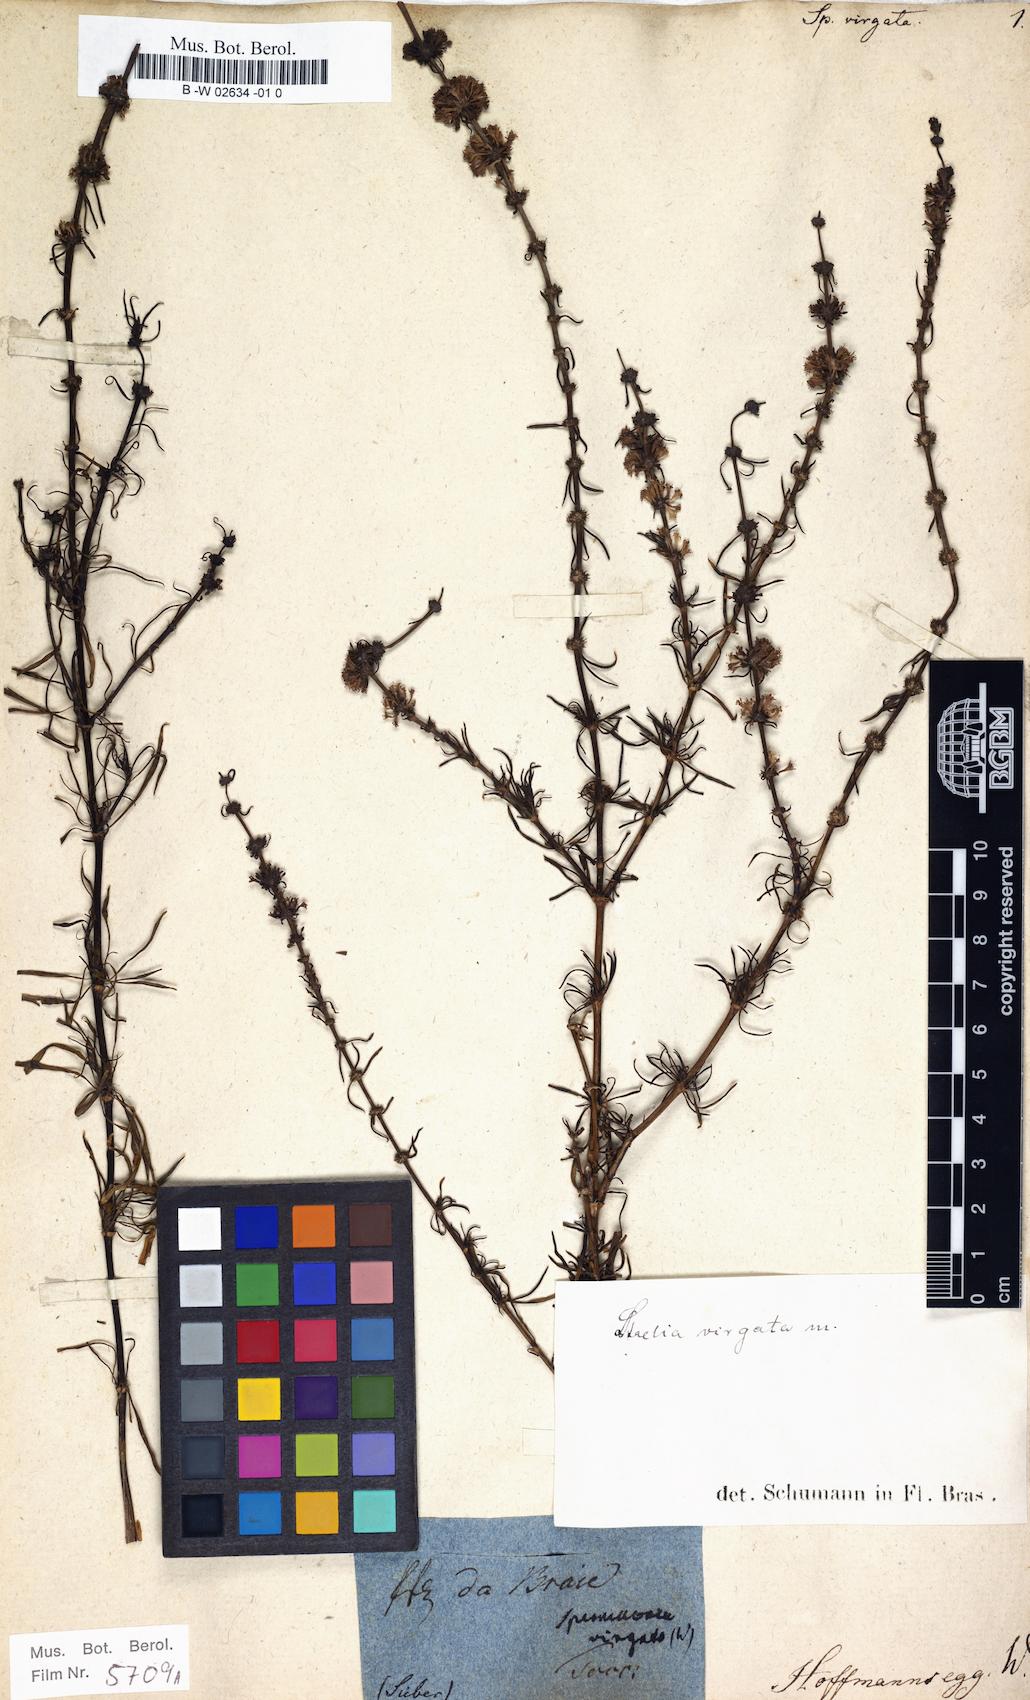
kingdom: Plantae
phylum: Tracheophyta
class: Magnoliopsida
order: Gentianales
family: Rubiaceae
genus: Staelia
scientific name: Staelia virgata
